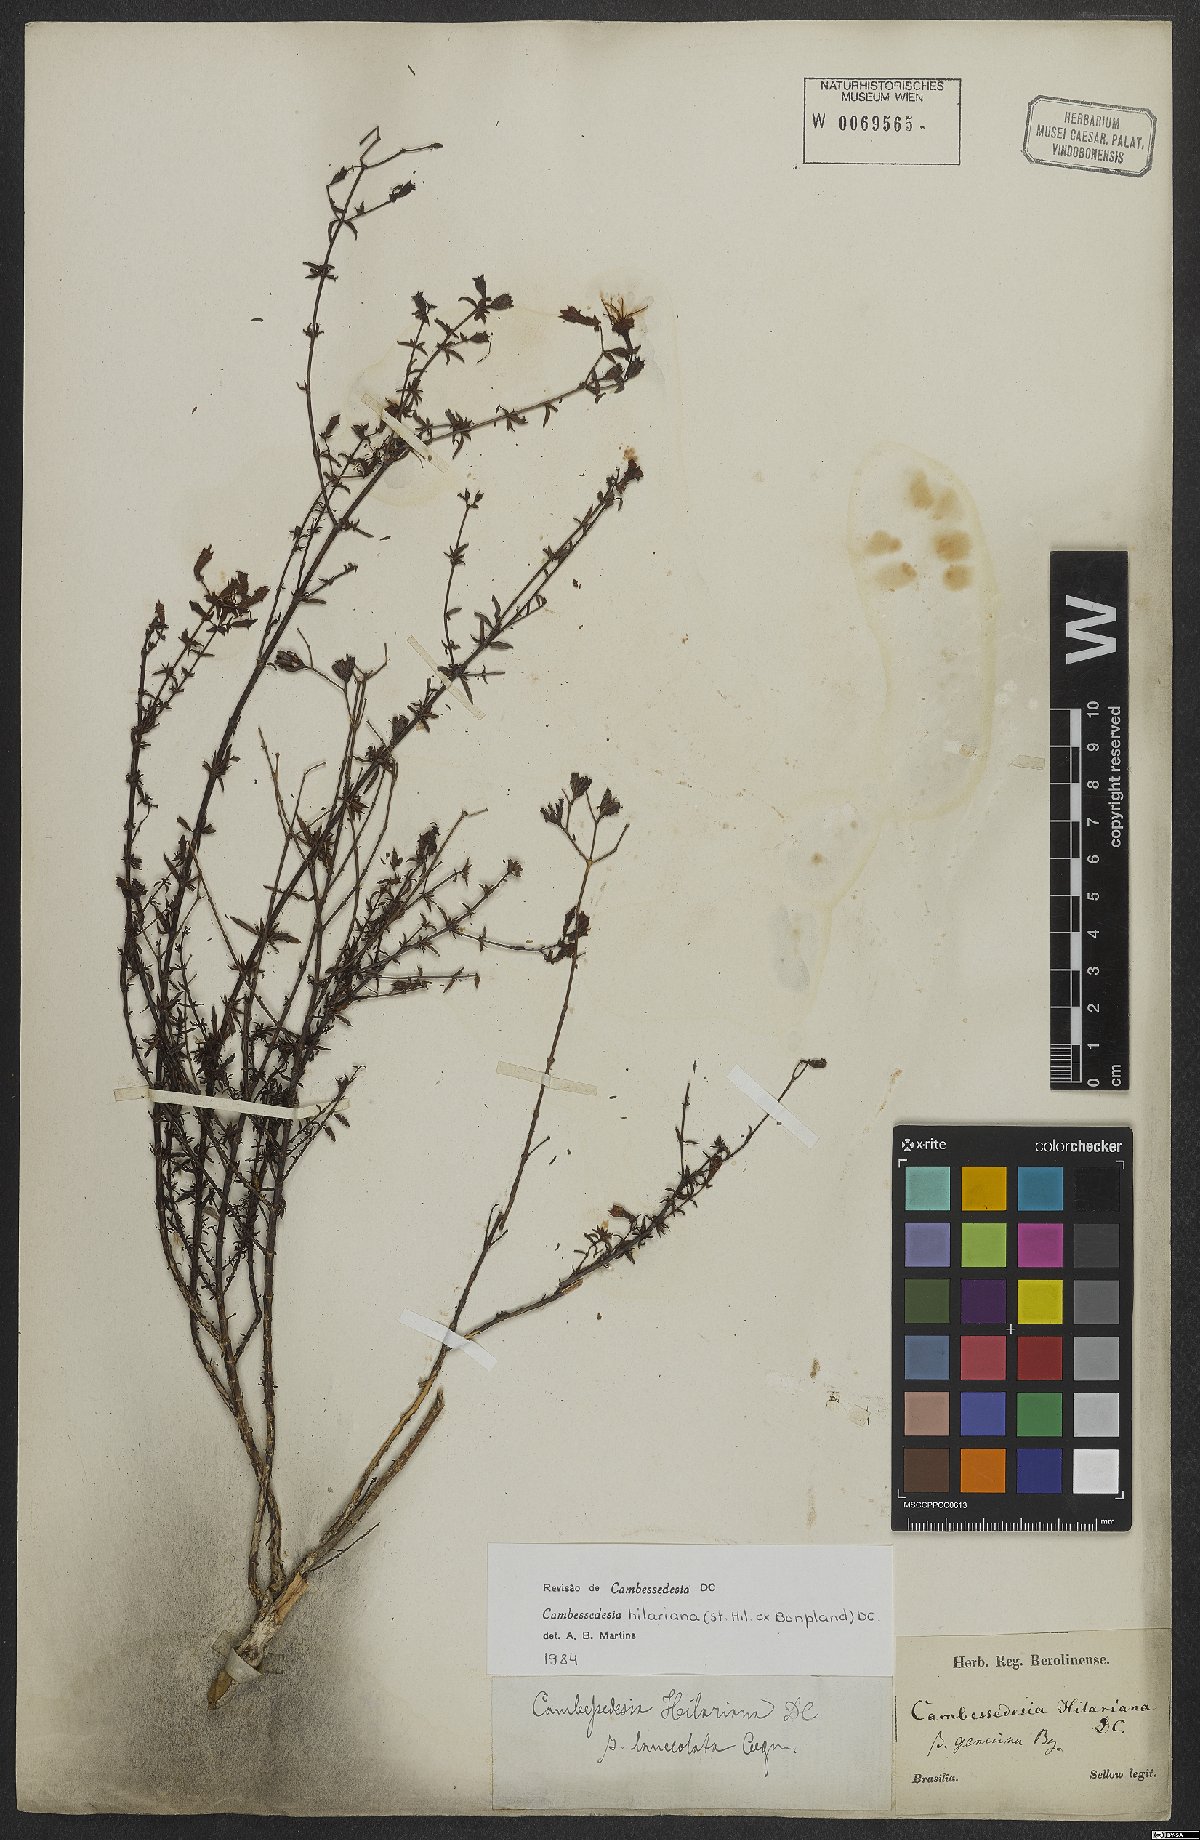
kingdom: Plantae
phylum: Tracheophyta
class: Magnoliopsida
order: Myrtales
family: Melastomataceae
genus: Cambessedesia
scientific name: Cambessedesia hilariana
